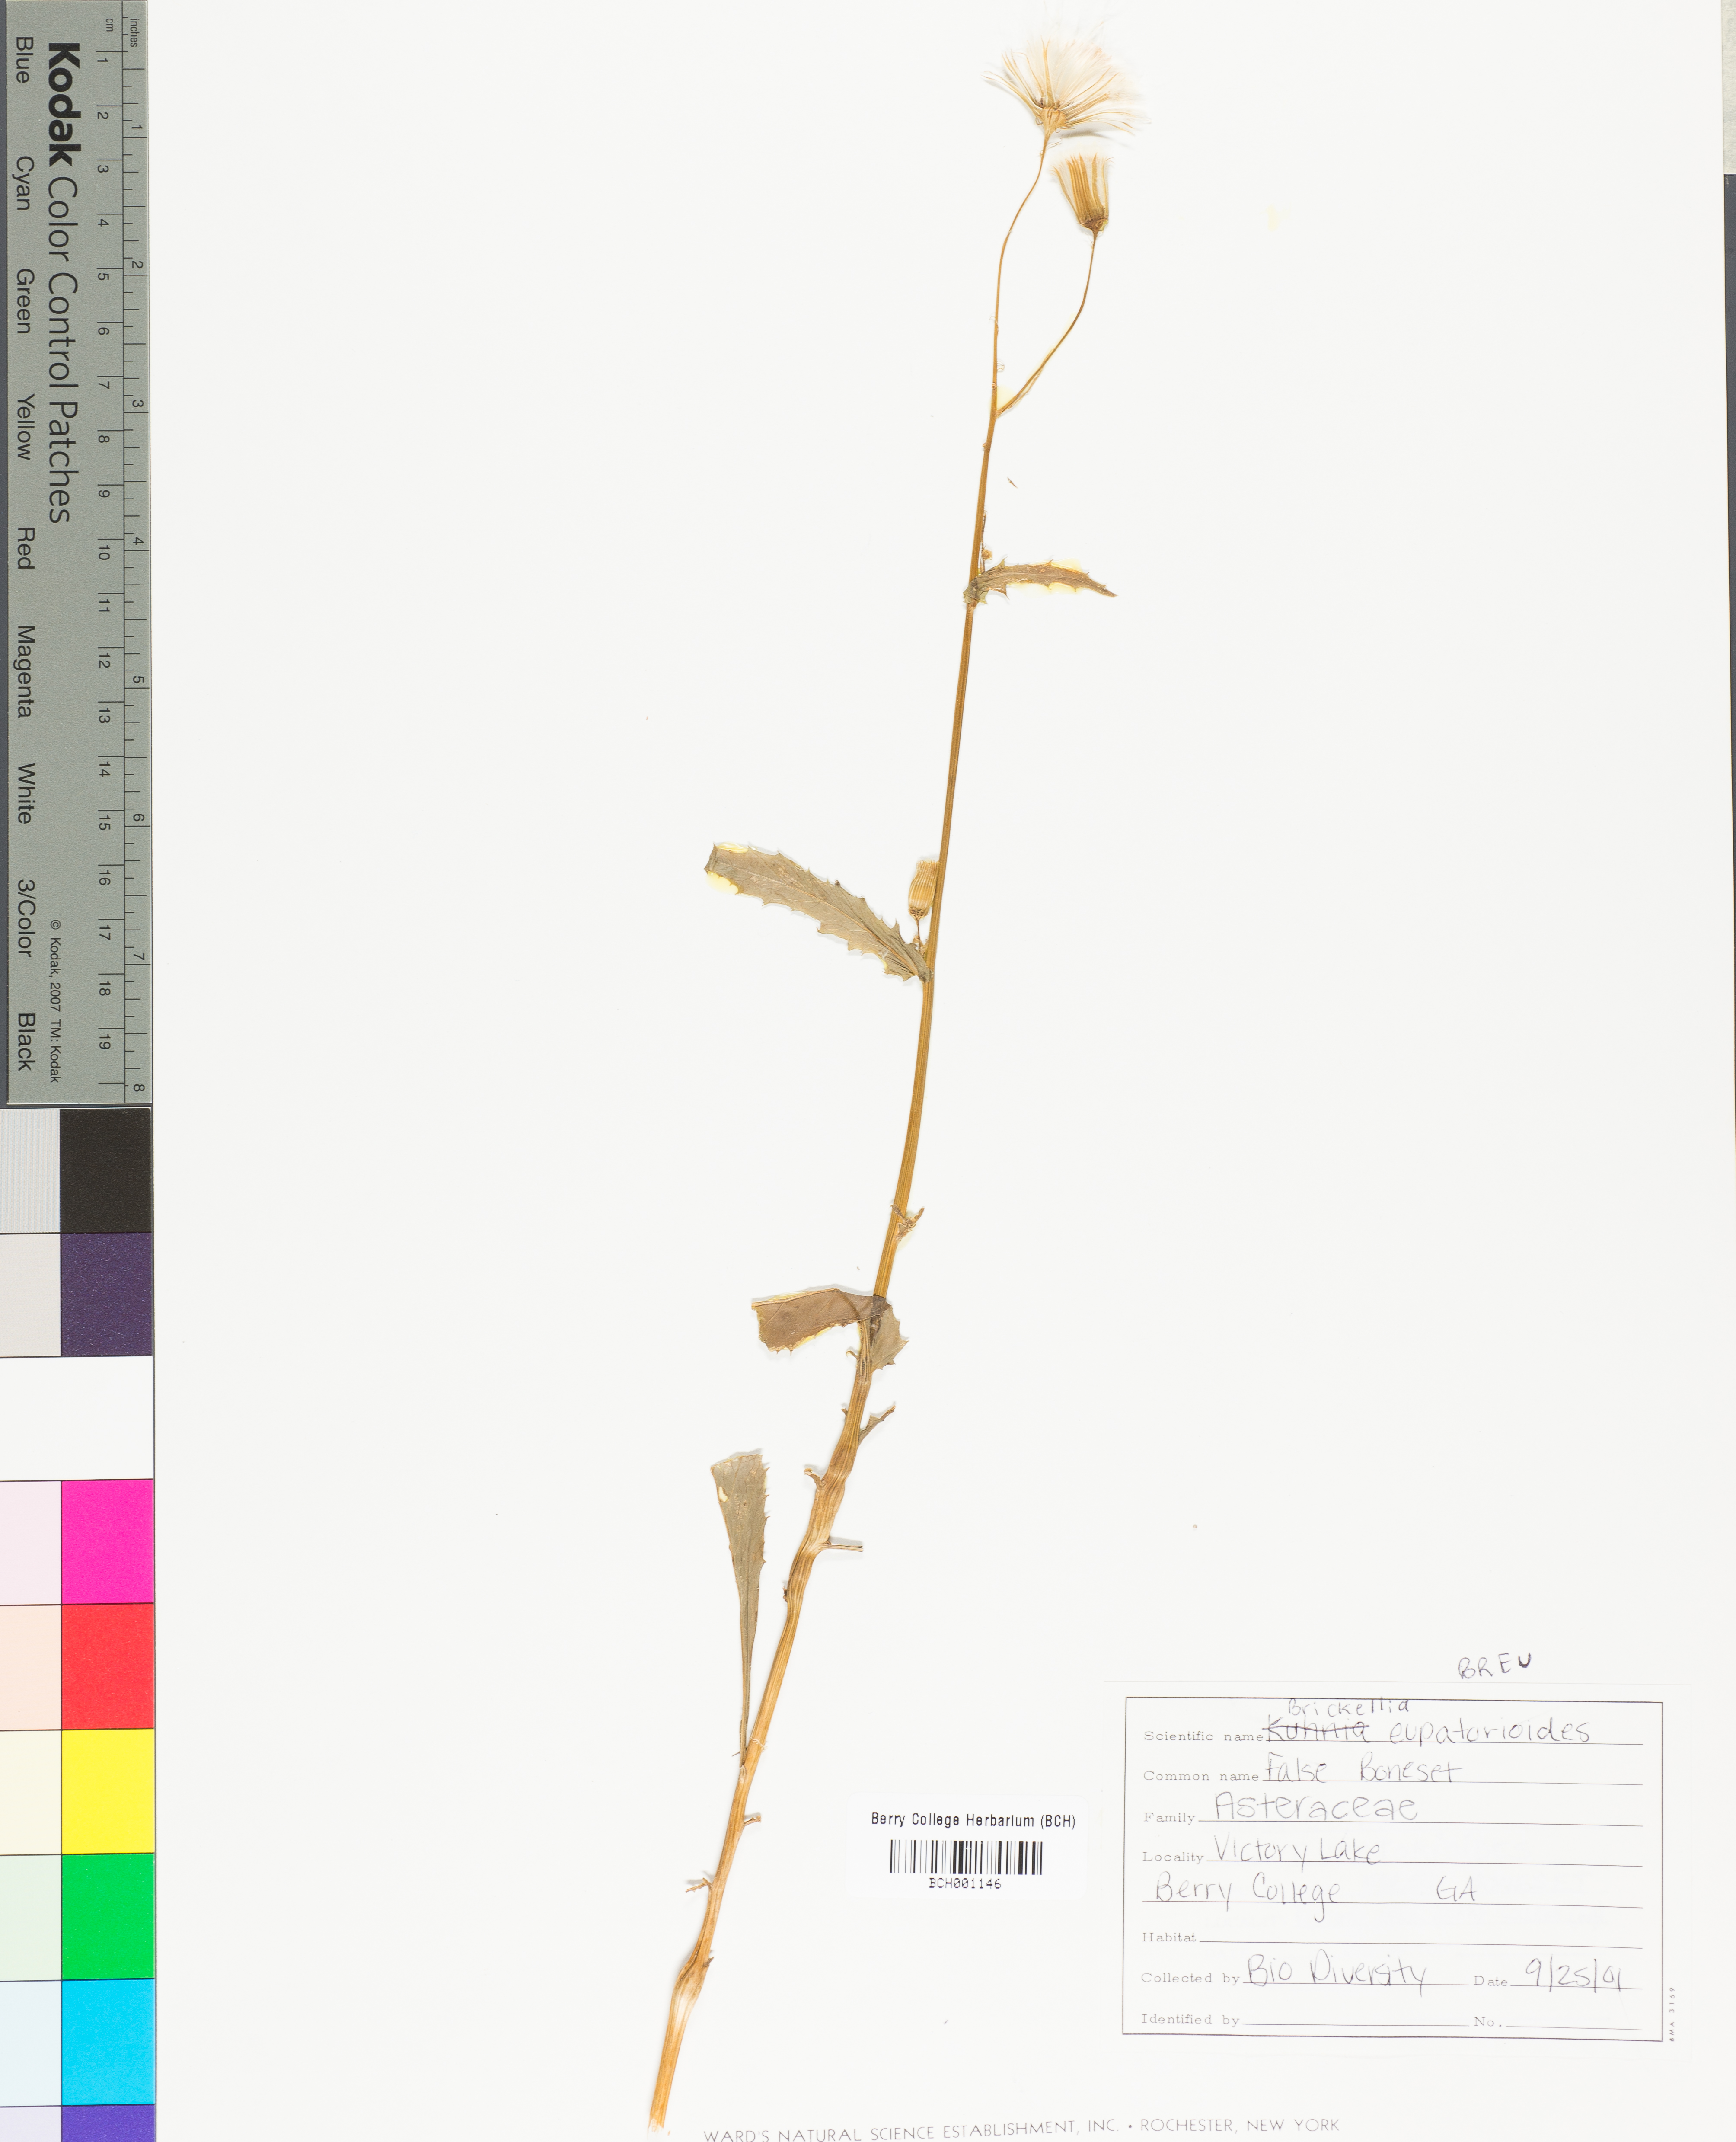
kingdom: Plantae
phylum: Tracheophyta
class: Magnoliopsida
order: Asterales
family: Asteraceae
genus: Brickellia
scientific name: Brickellia eupatorioides
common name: False boneset
